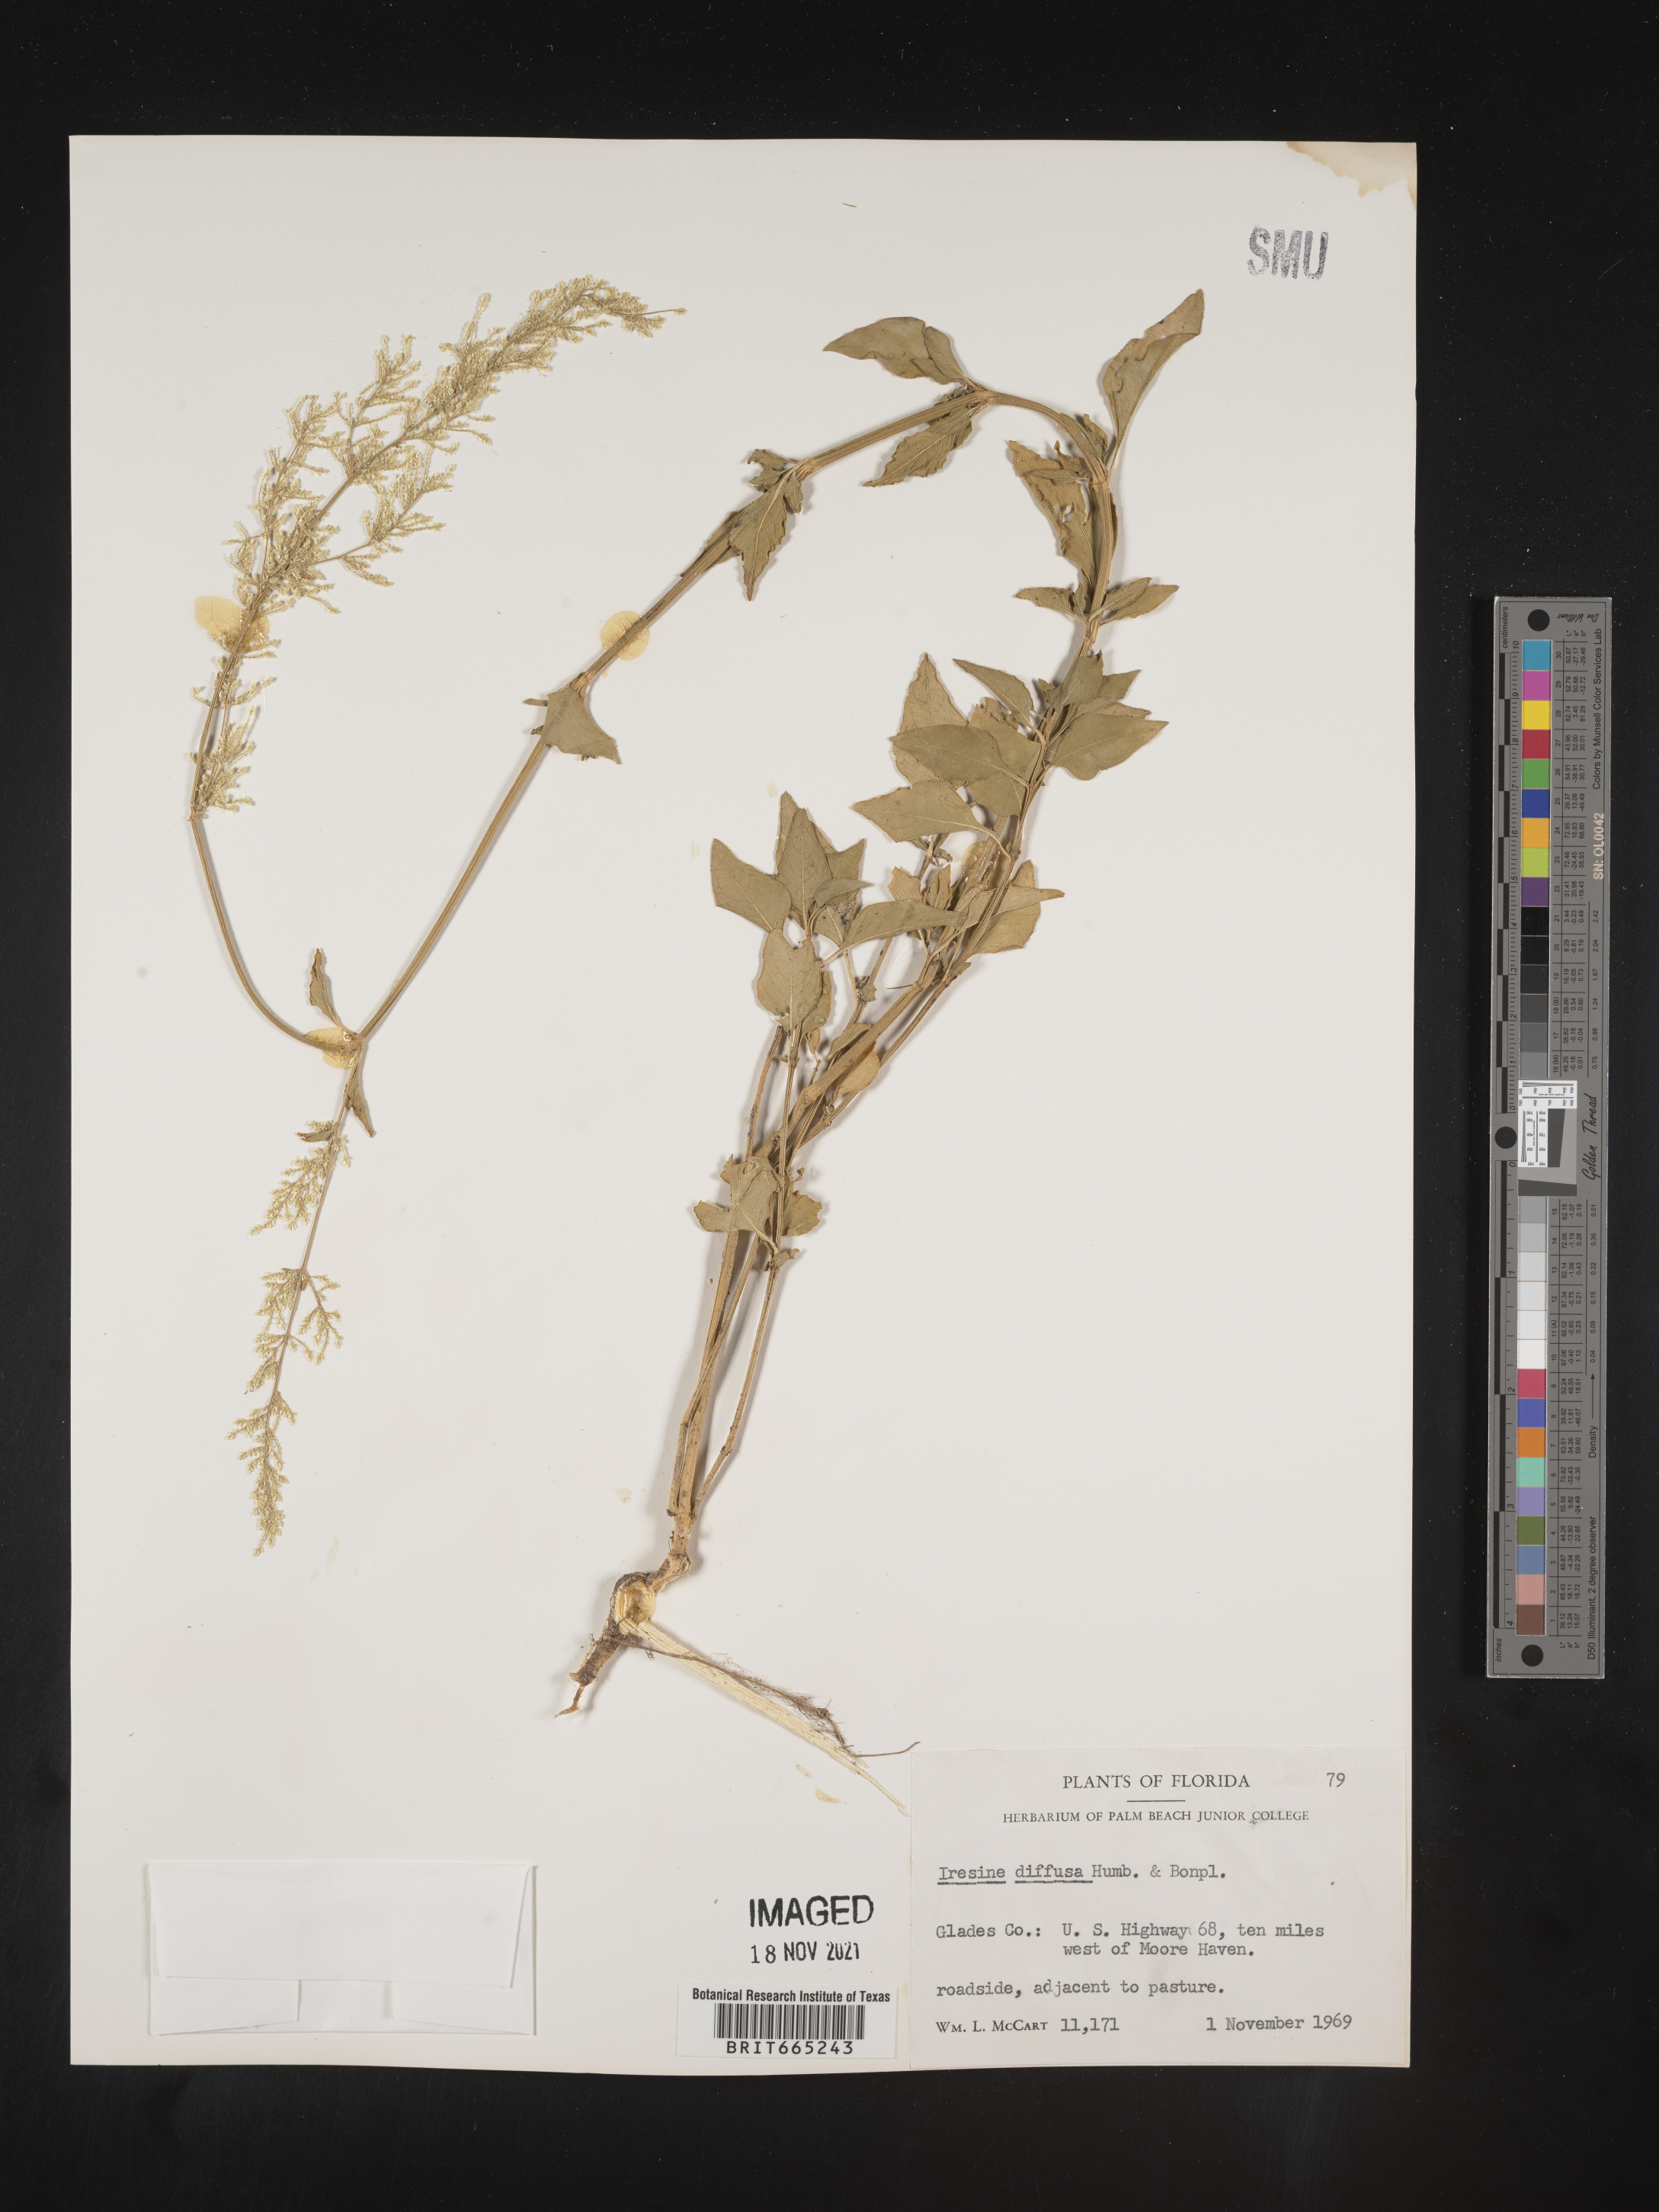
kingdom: Plantae
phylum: Tracheophyta
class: Magnoliopsida
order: Caryophyllales
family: Amaranthaceae
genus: Iresine
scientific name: Iresine
